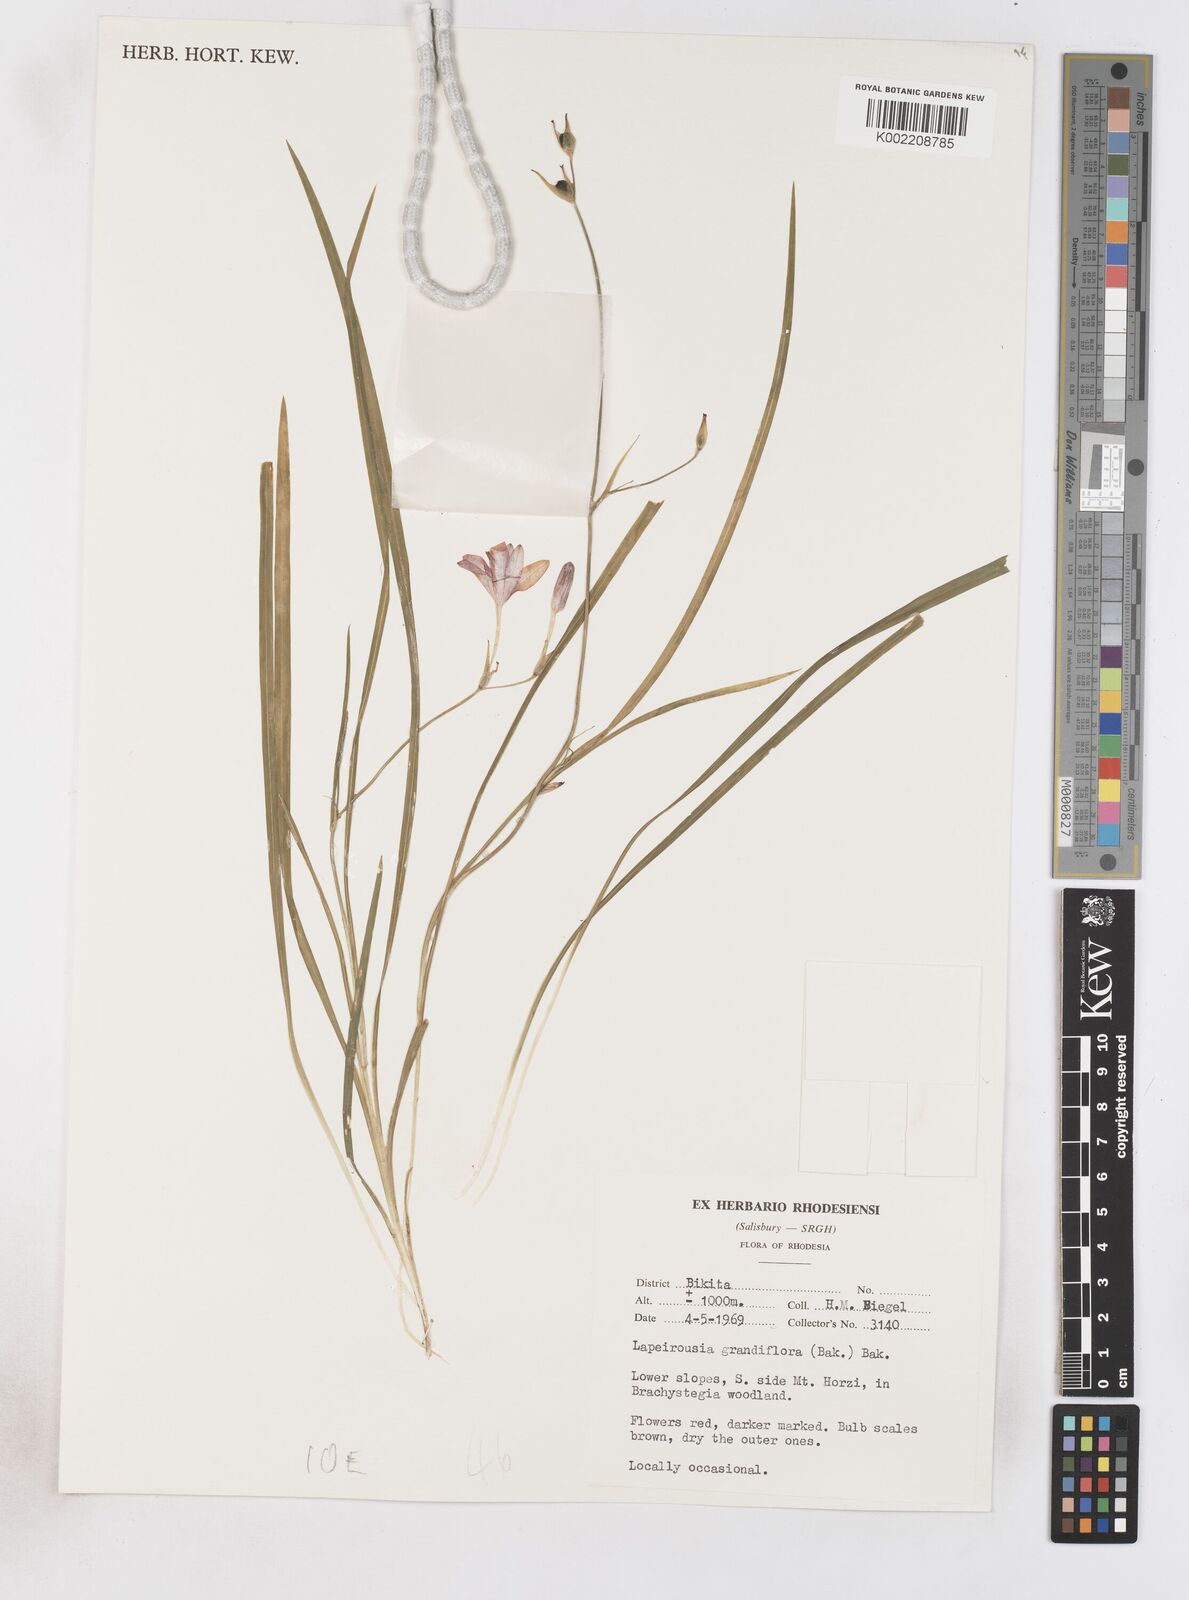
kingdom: Plantae
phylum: Tracheophyta
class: Liliopsida
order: Asparagales
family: Iridaceae
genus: Freesia
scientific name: Freesia grandiflora
